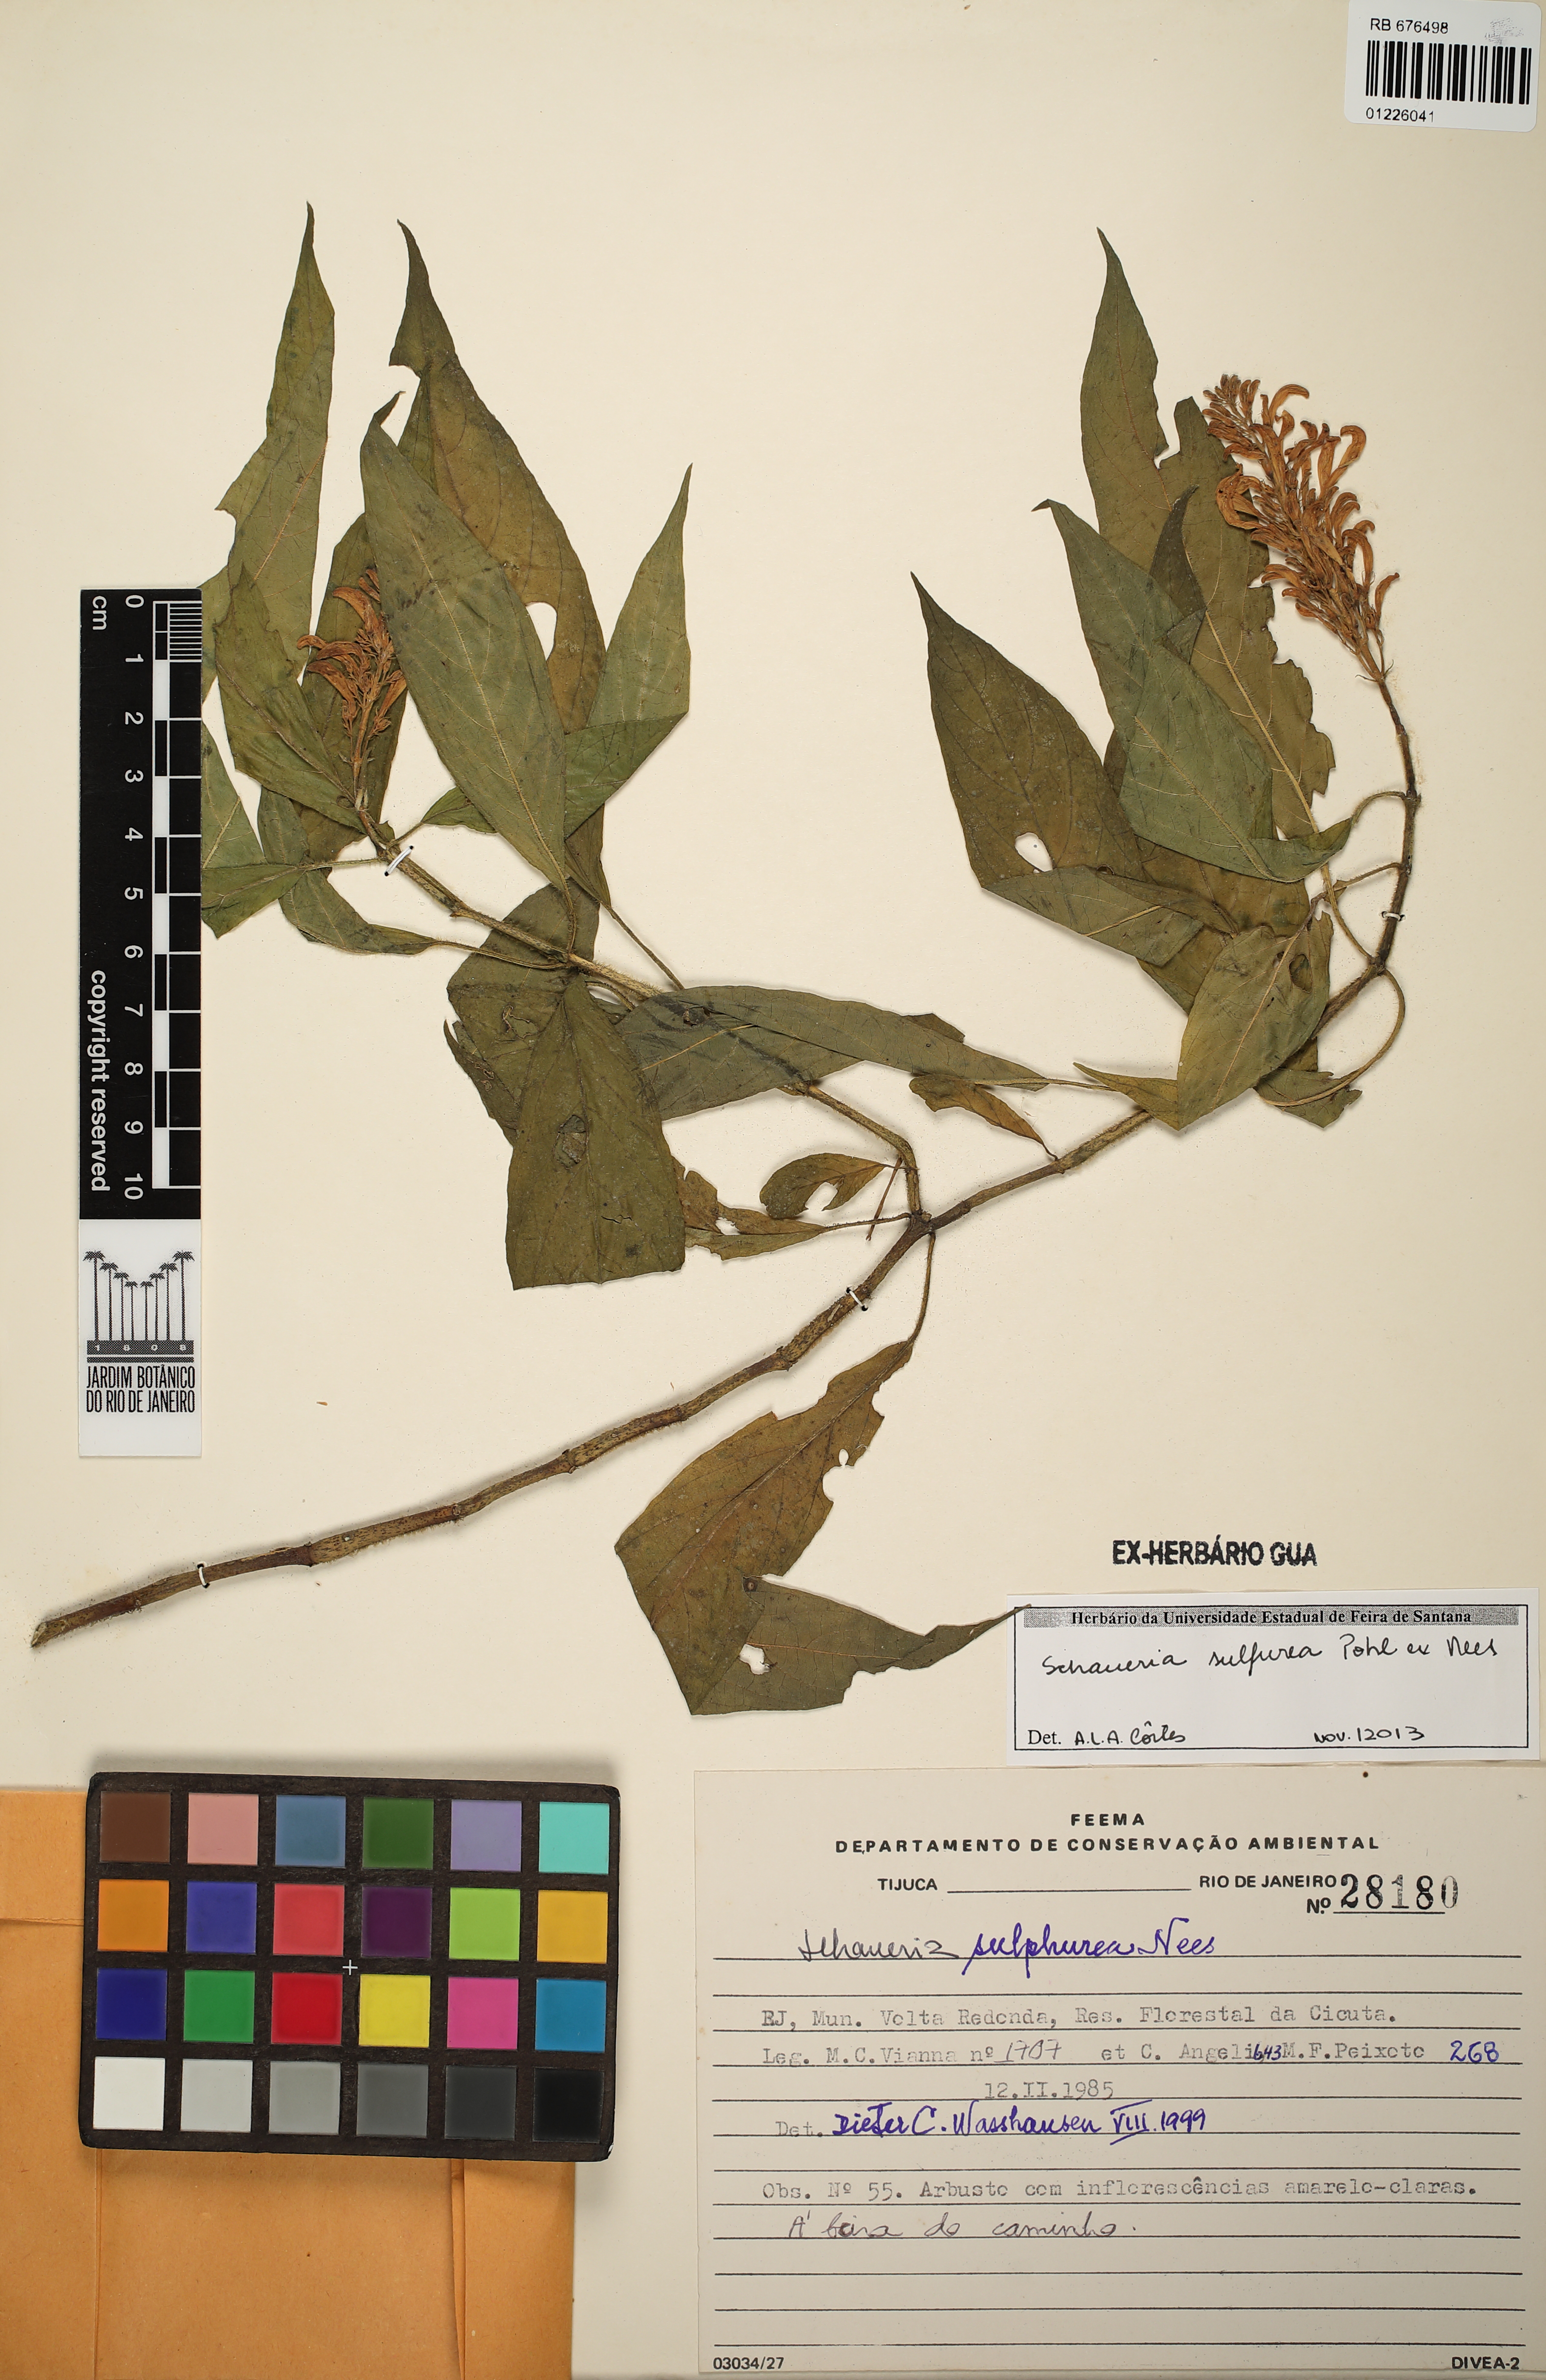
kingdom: Plantae
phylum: Tracheophyta
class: Magnoliopsida
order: Lamiales
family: Acanthaceae
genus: Schaueria
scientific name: Schaueria sulphurea
